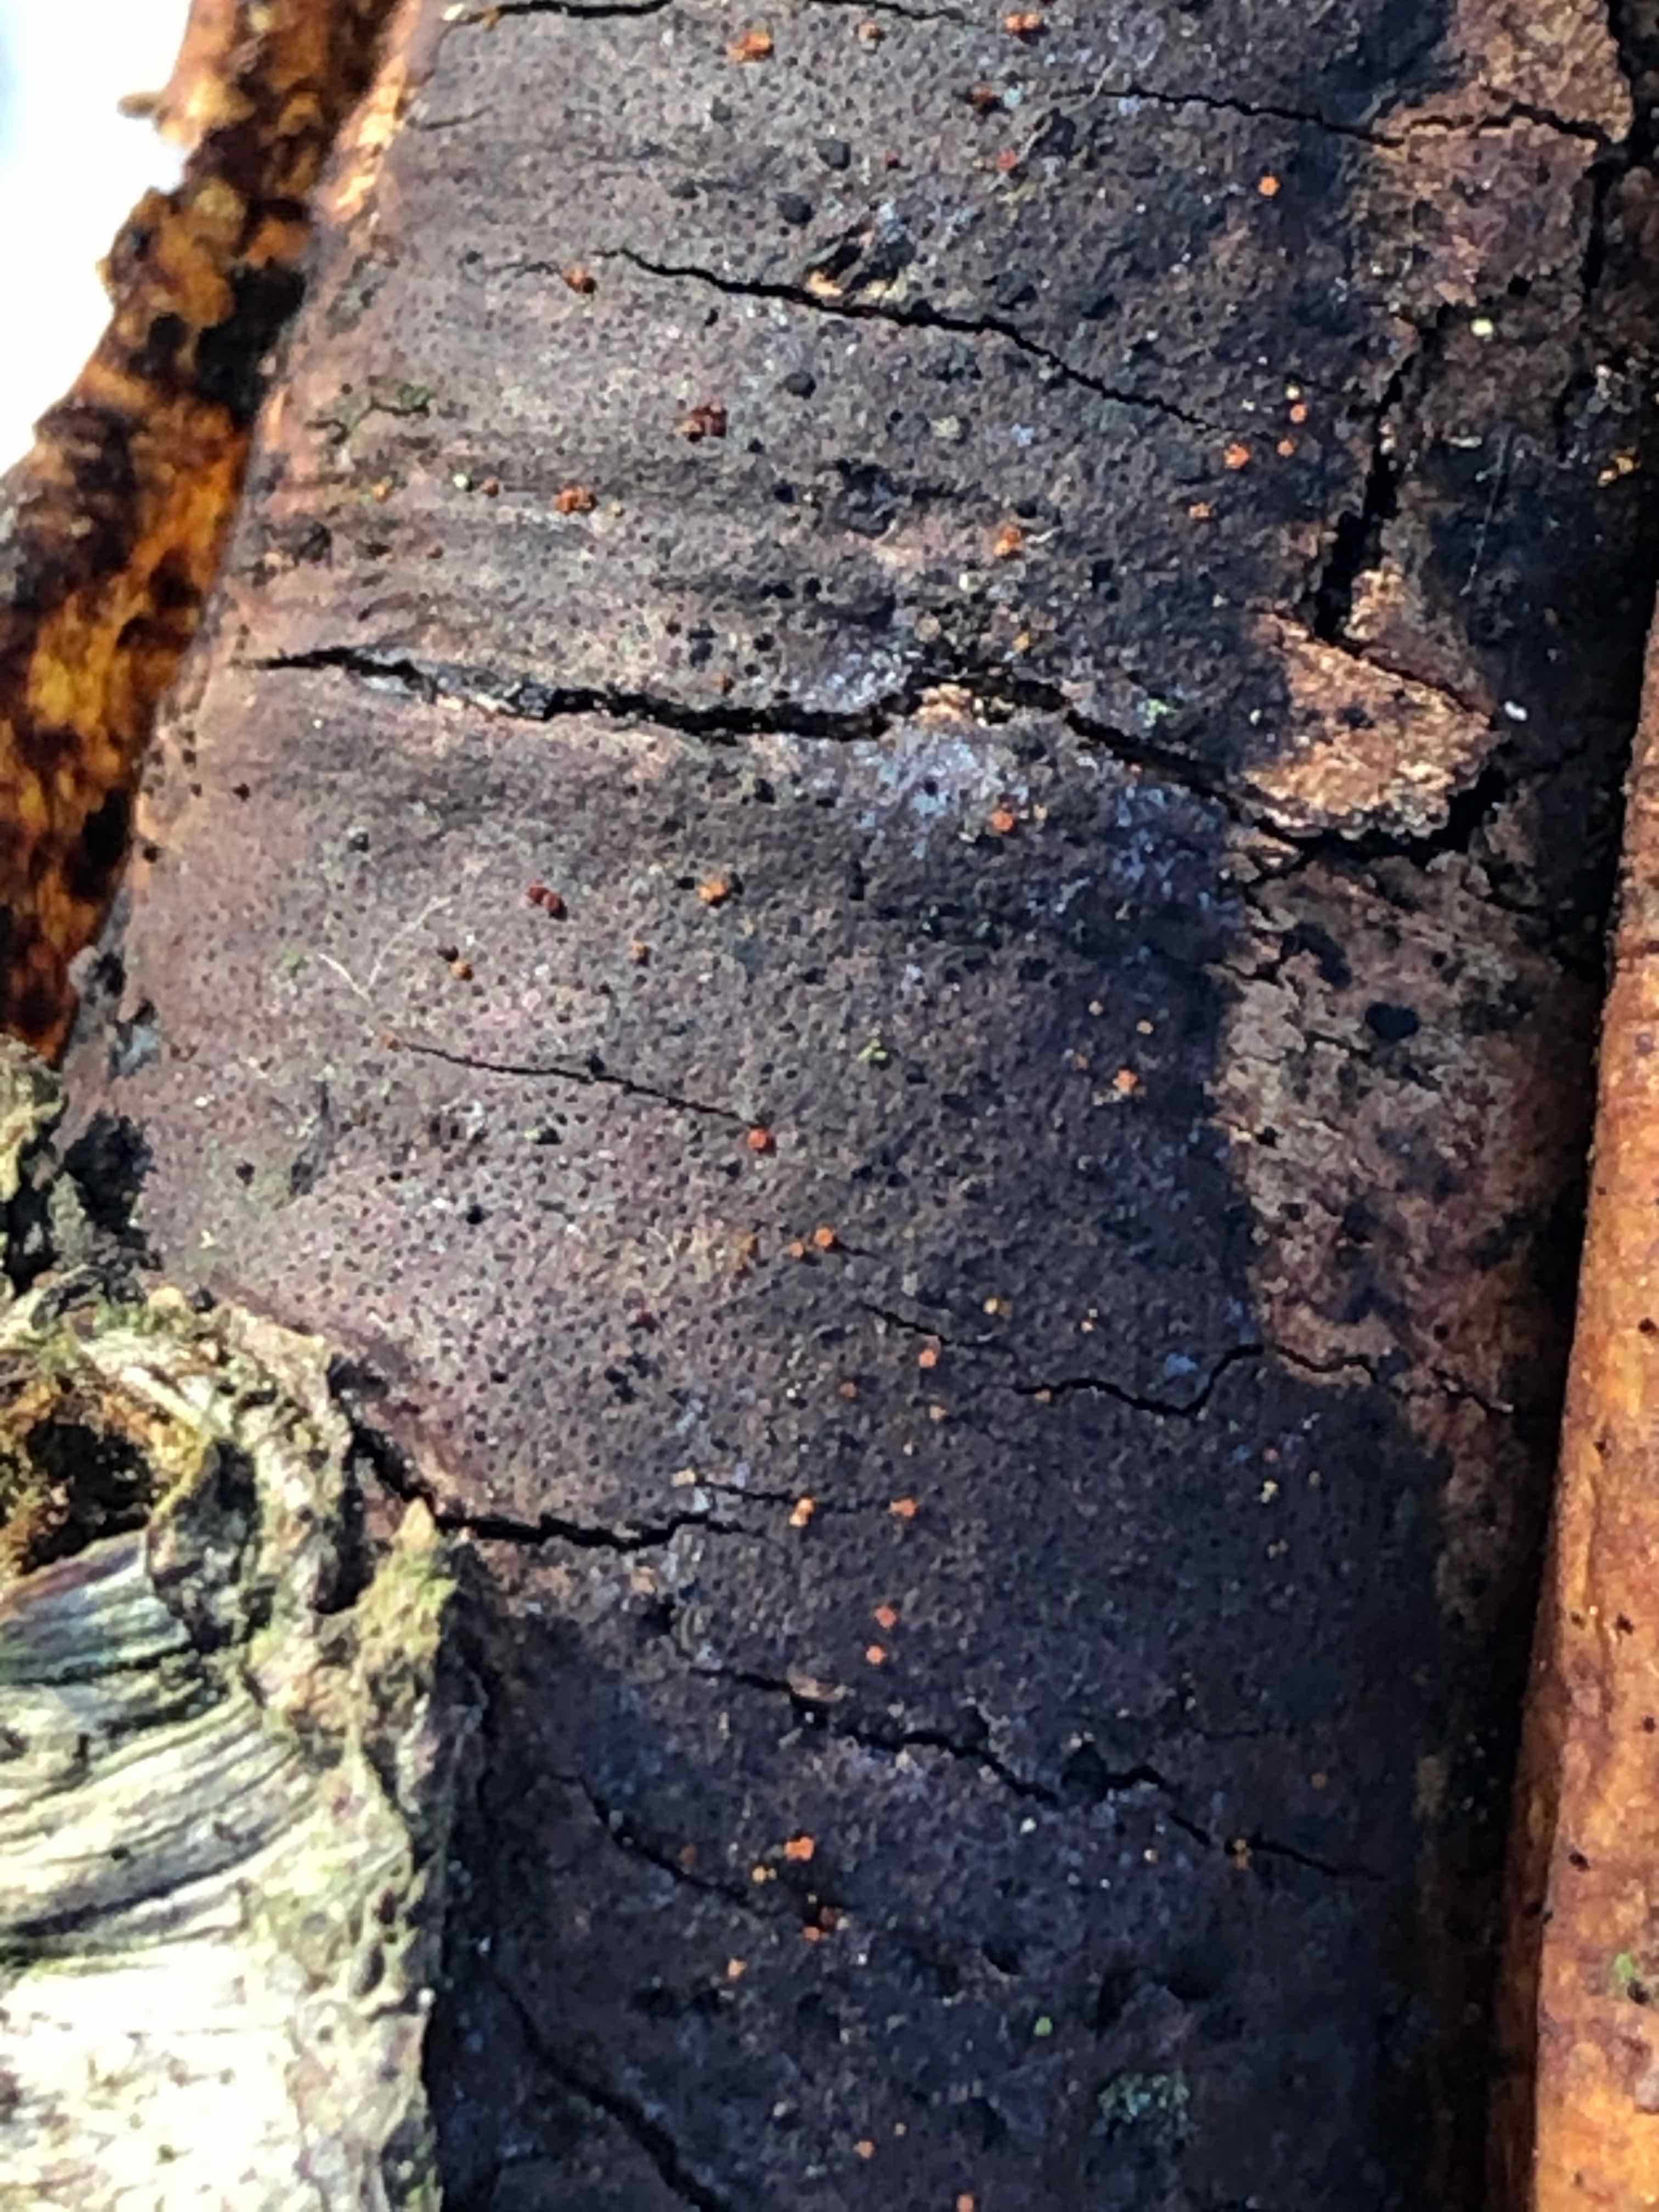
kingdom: Fungi
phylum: Ascomycota
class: Sordariomycetes
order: Xylariales
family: Diatrypaceae
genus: Diatrype
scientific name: Diatrype decorticata
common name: barksprænger-kulskorpe
